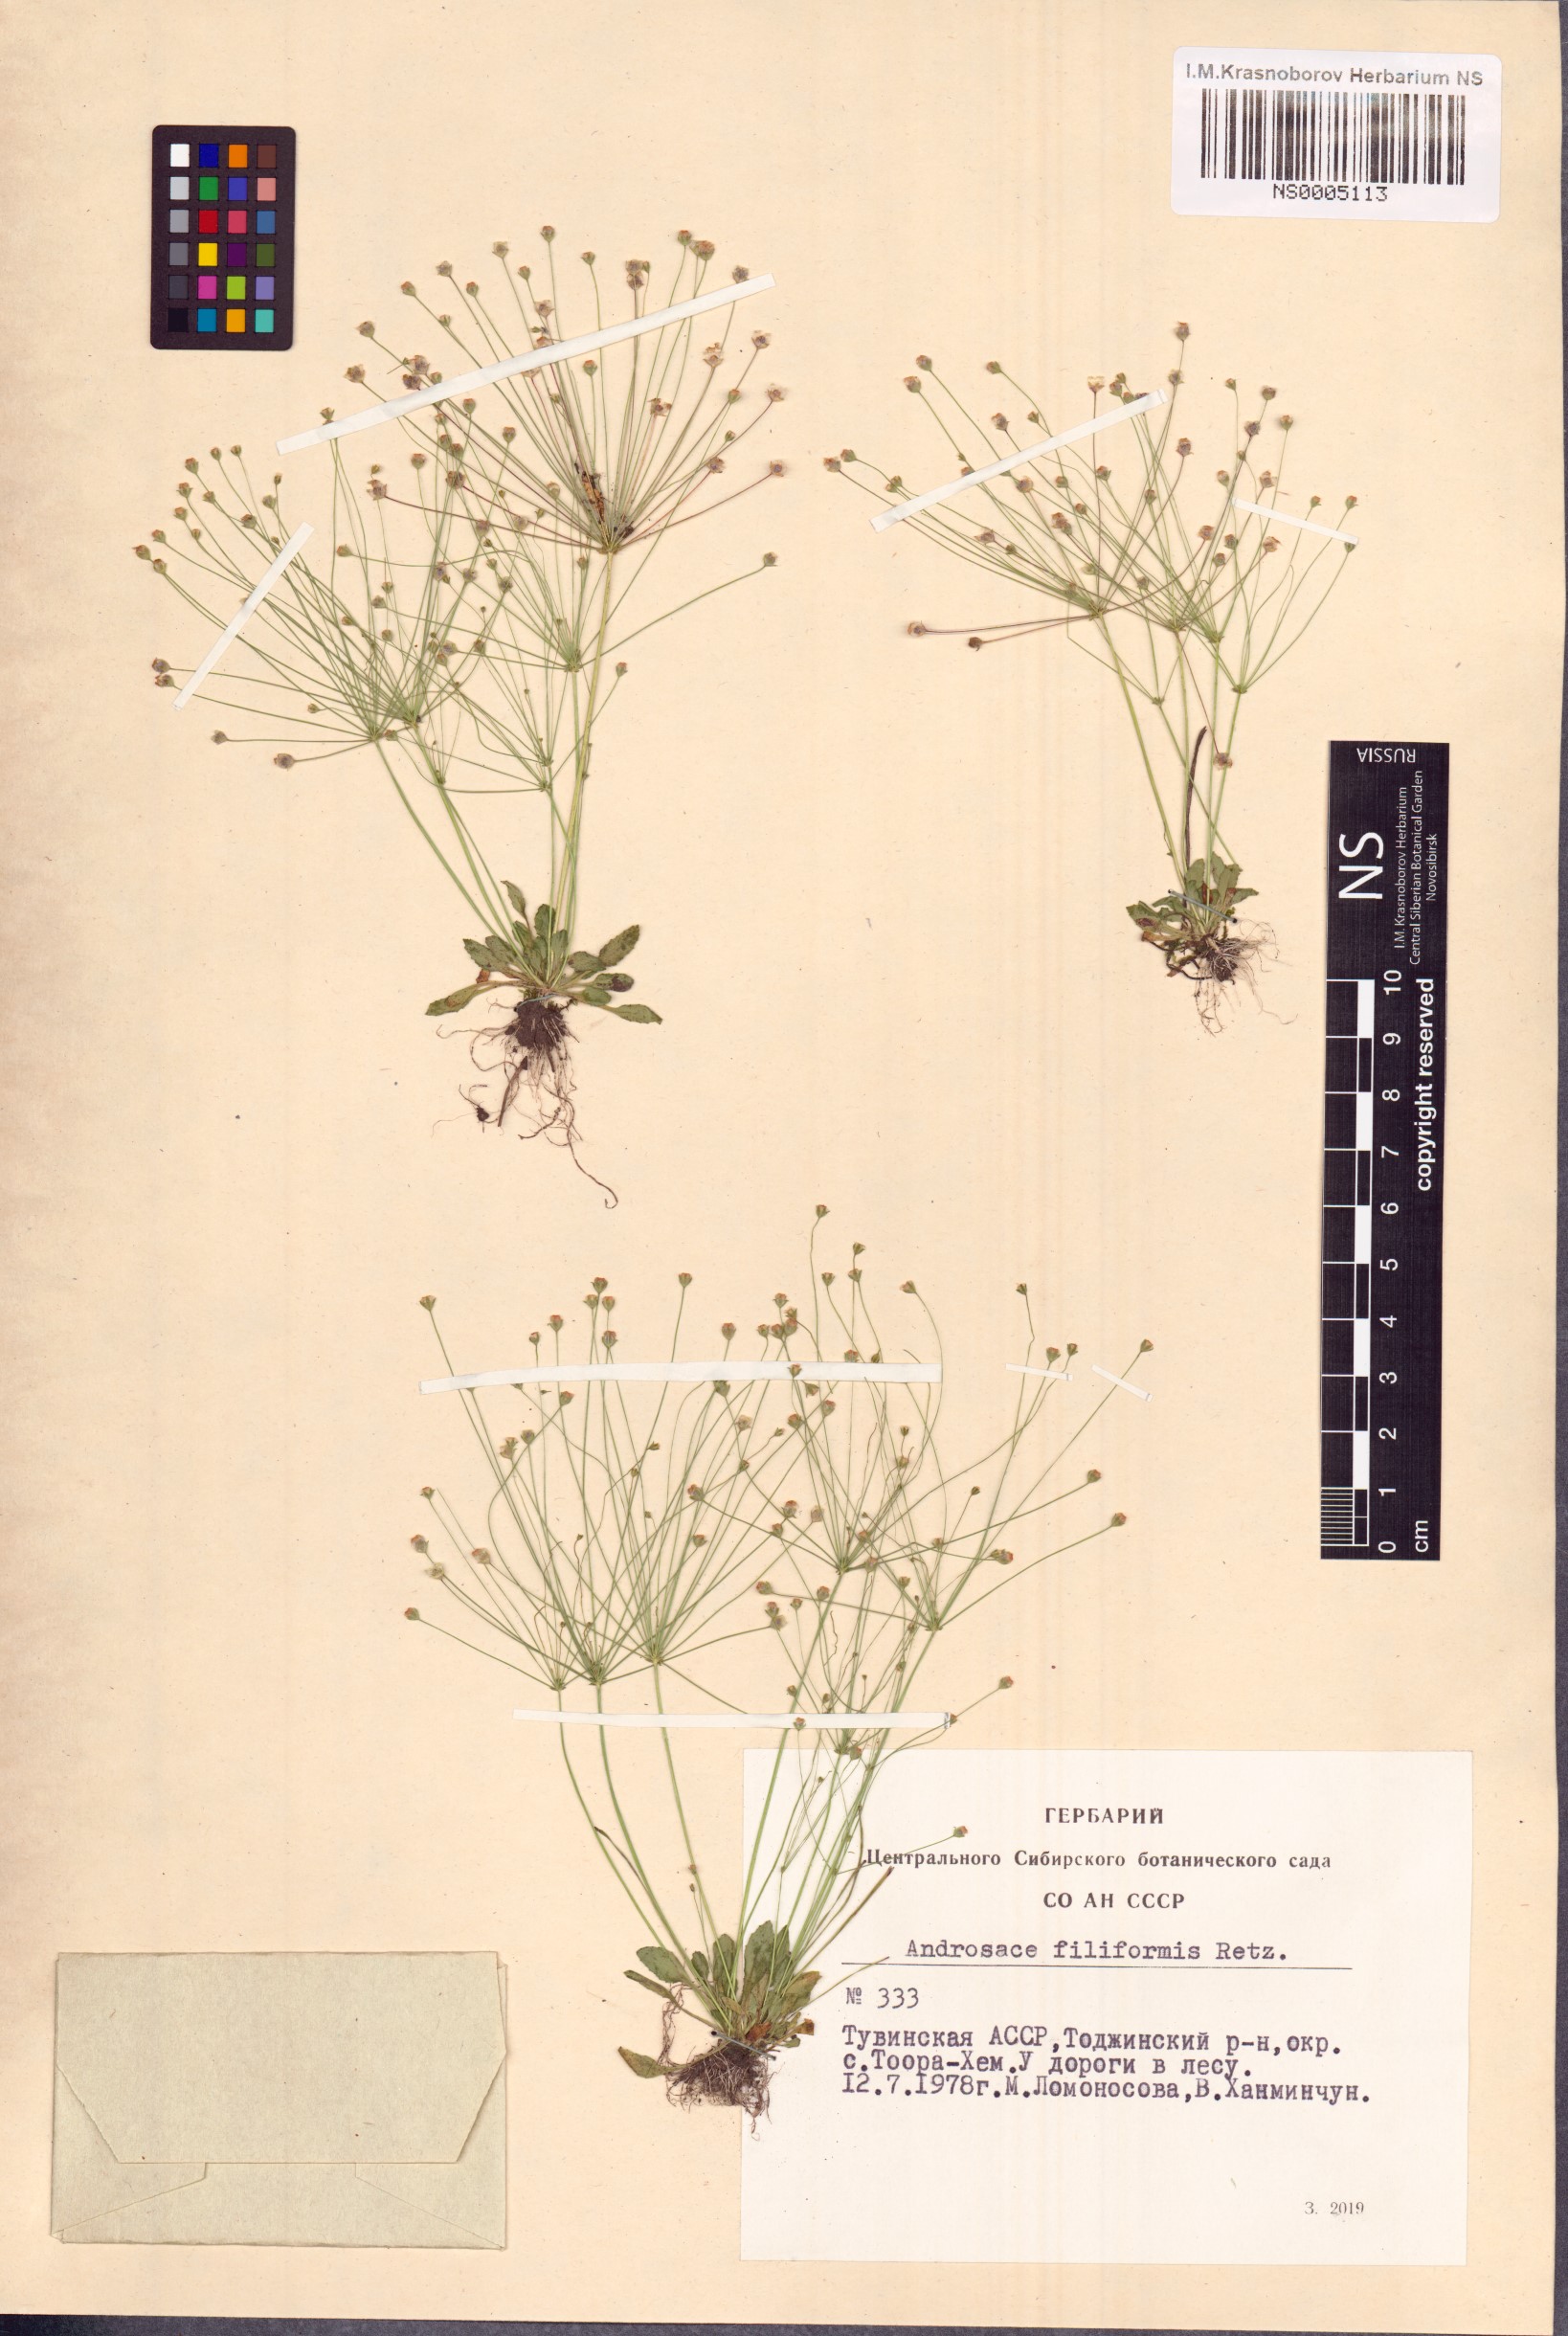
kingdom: Plantae
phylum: Tracheophyta
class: Magnoliopsida
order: Ericales
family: Primulaceae
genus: Androsace
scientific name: Androsace filiformis
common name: Filiform rock jasmine
